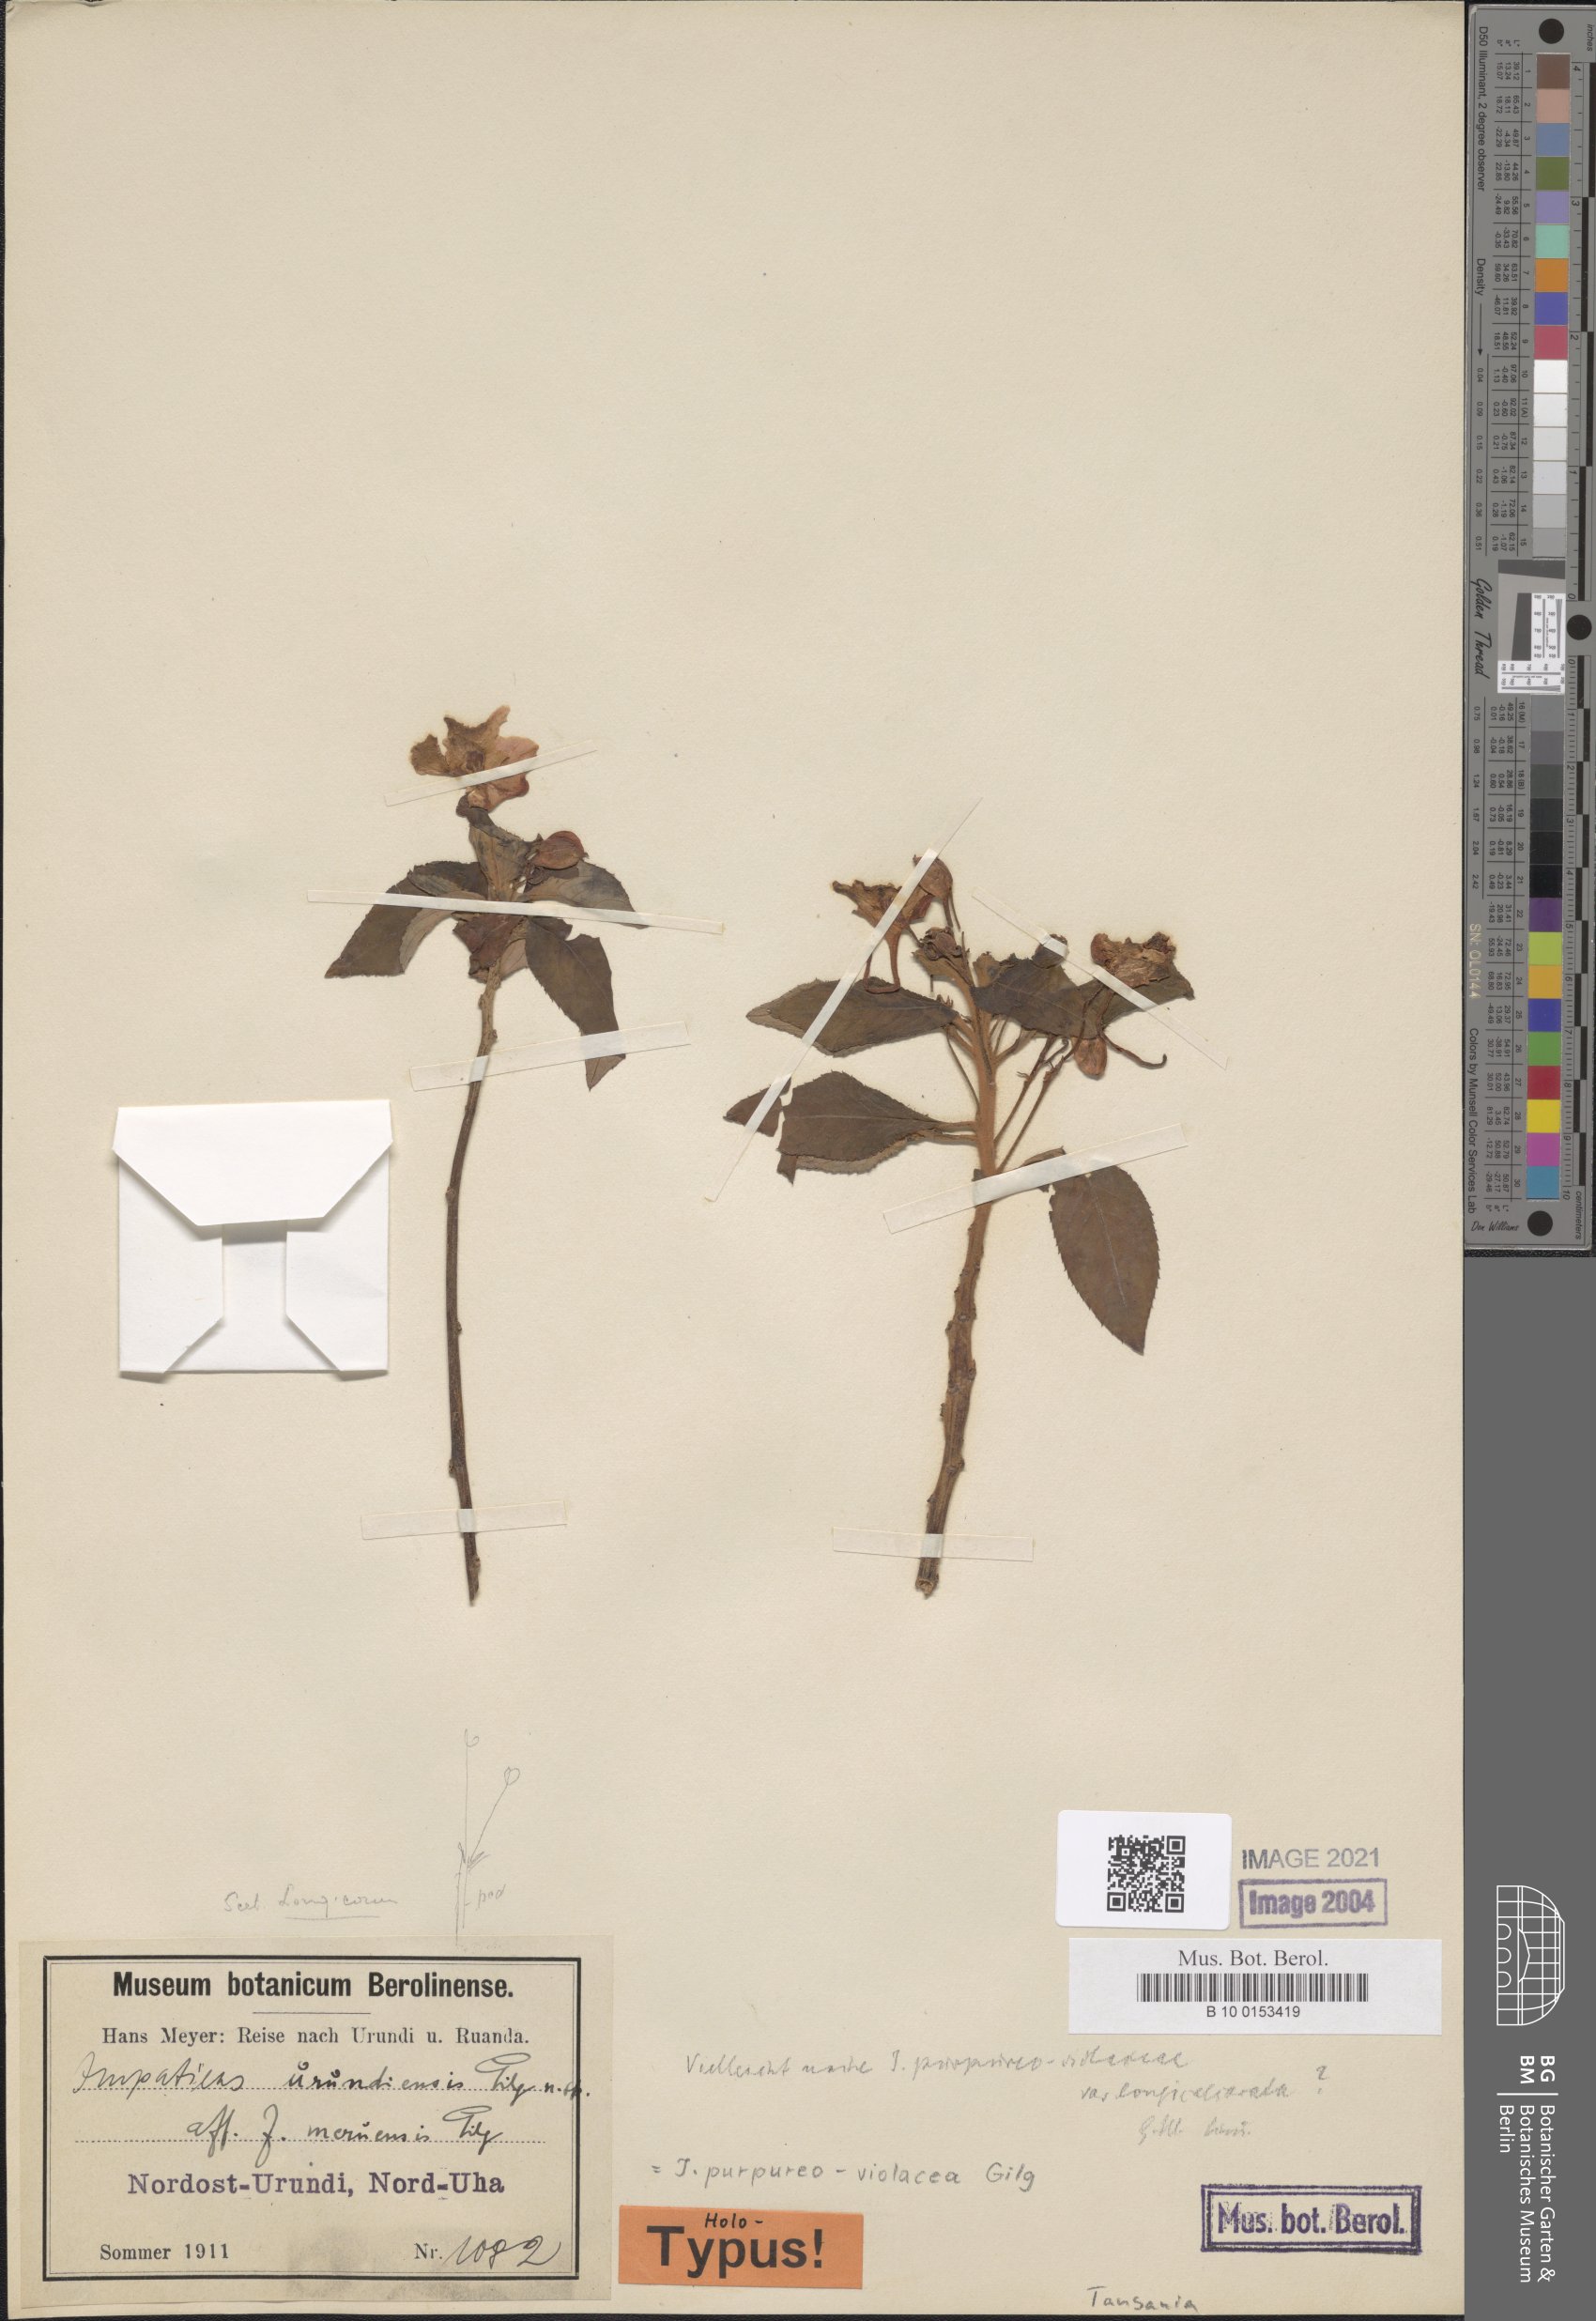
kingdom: Plantae
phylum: Tracheophyta
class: Magnoliopsida
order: Ericales
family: Balsaminaceae
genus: Impatiens
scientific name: Impatiens purpureoviolacea
